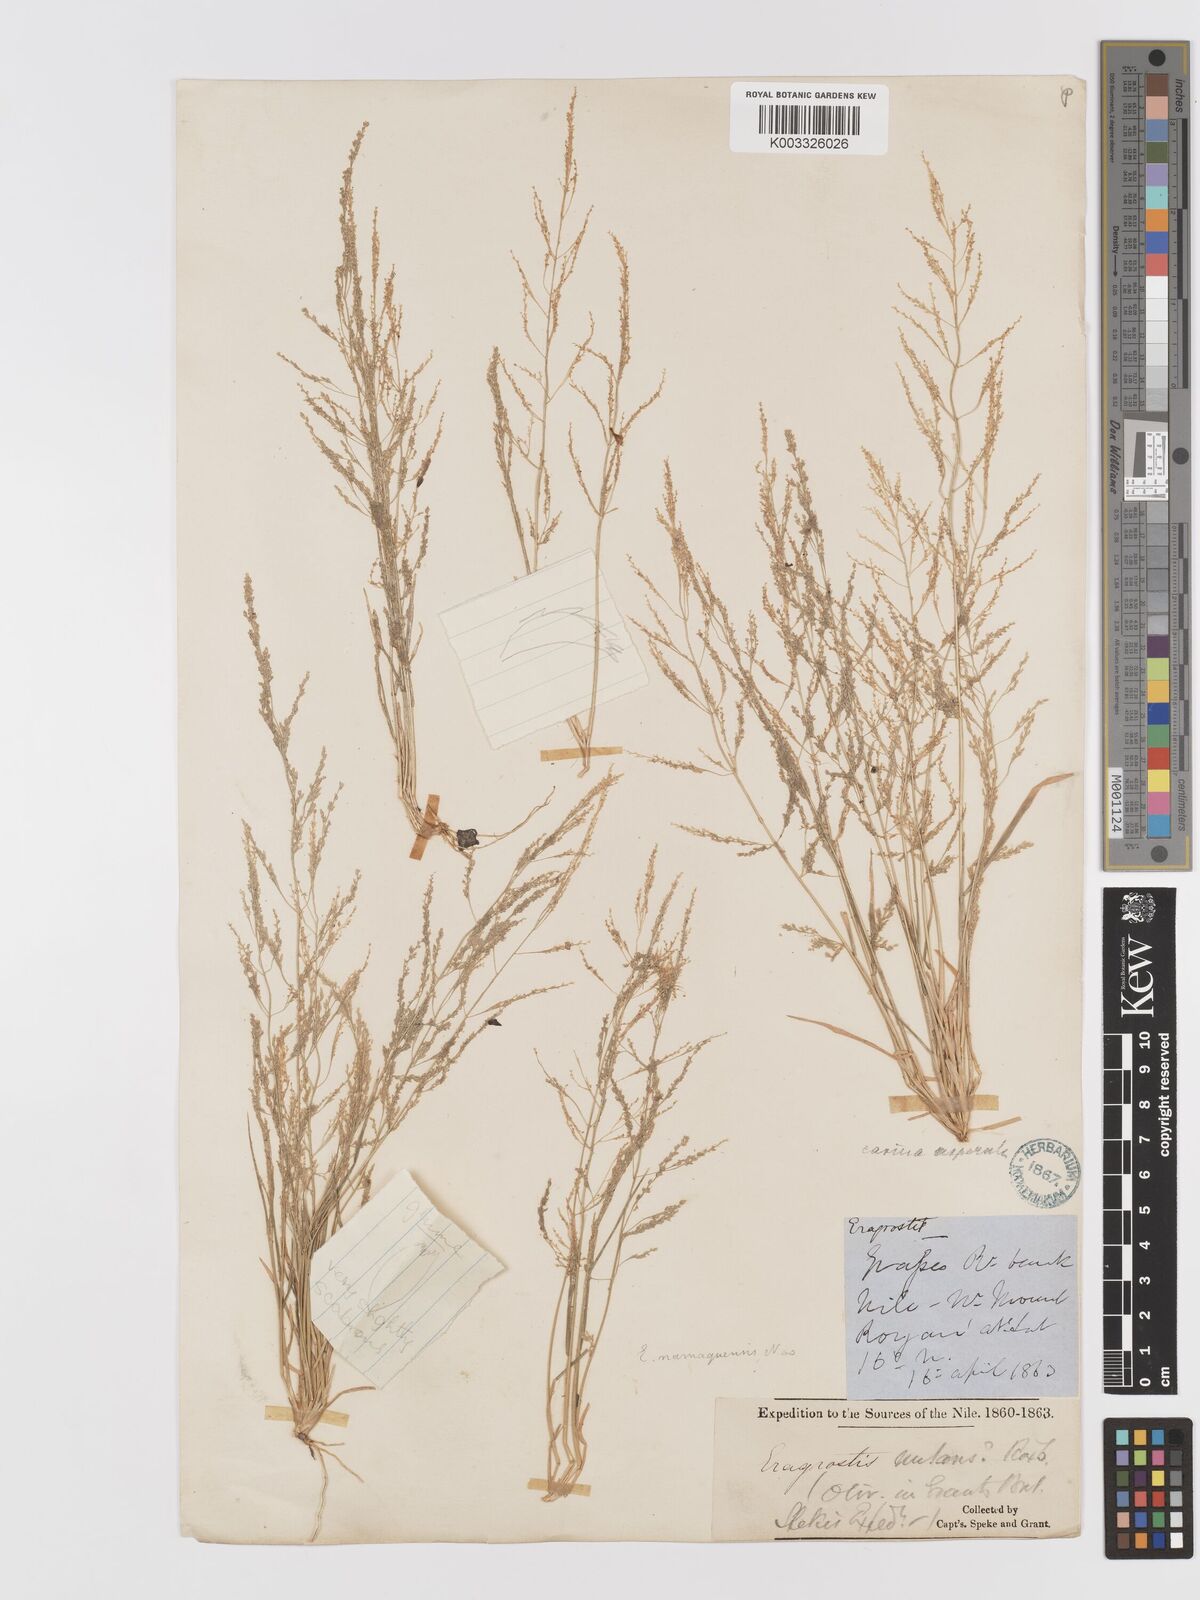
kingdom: Plantae
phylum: Tracheophyta
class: Liliopsida
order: Poales
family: Poaceae
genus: Eragrostis
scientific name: Eragrostis japonica
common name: Pond lovegrass
